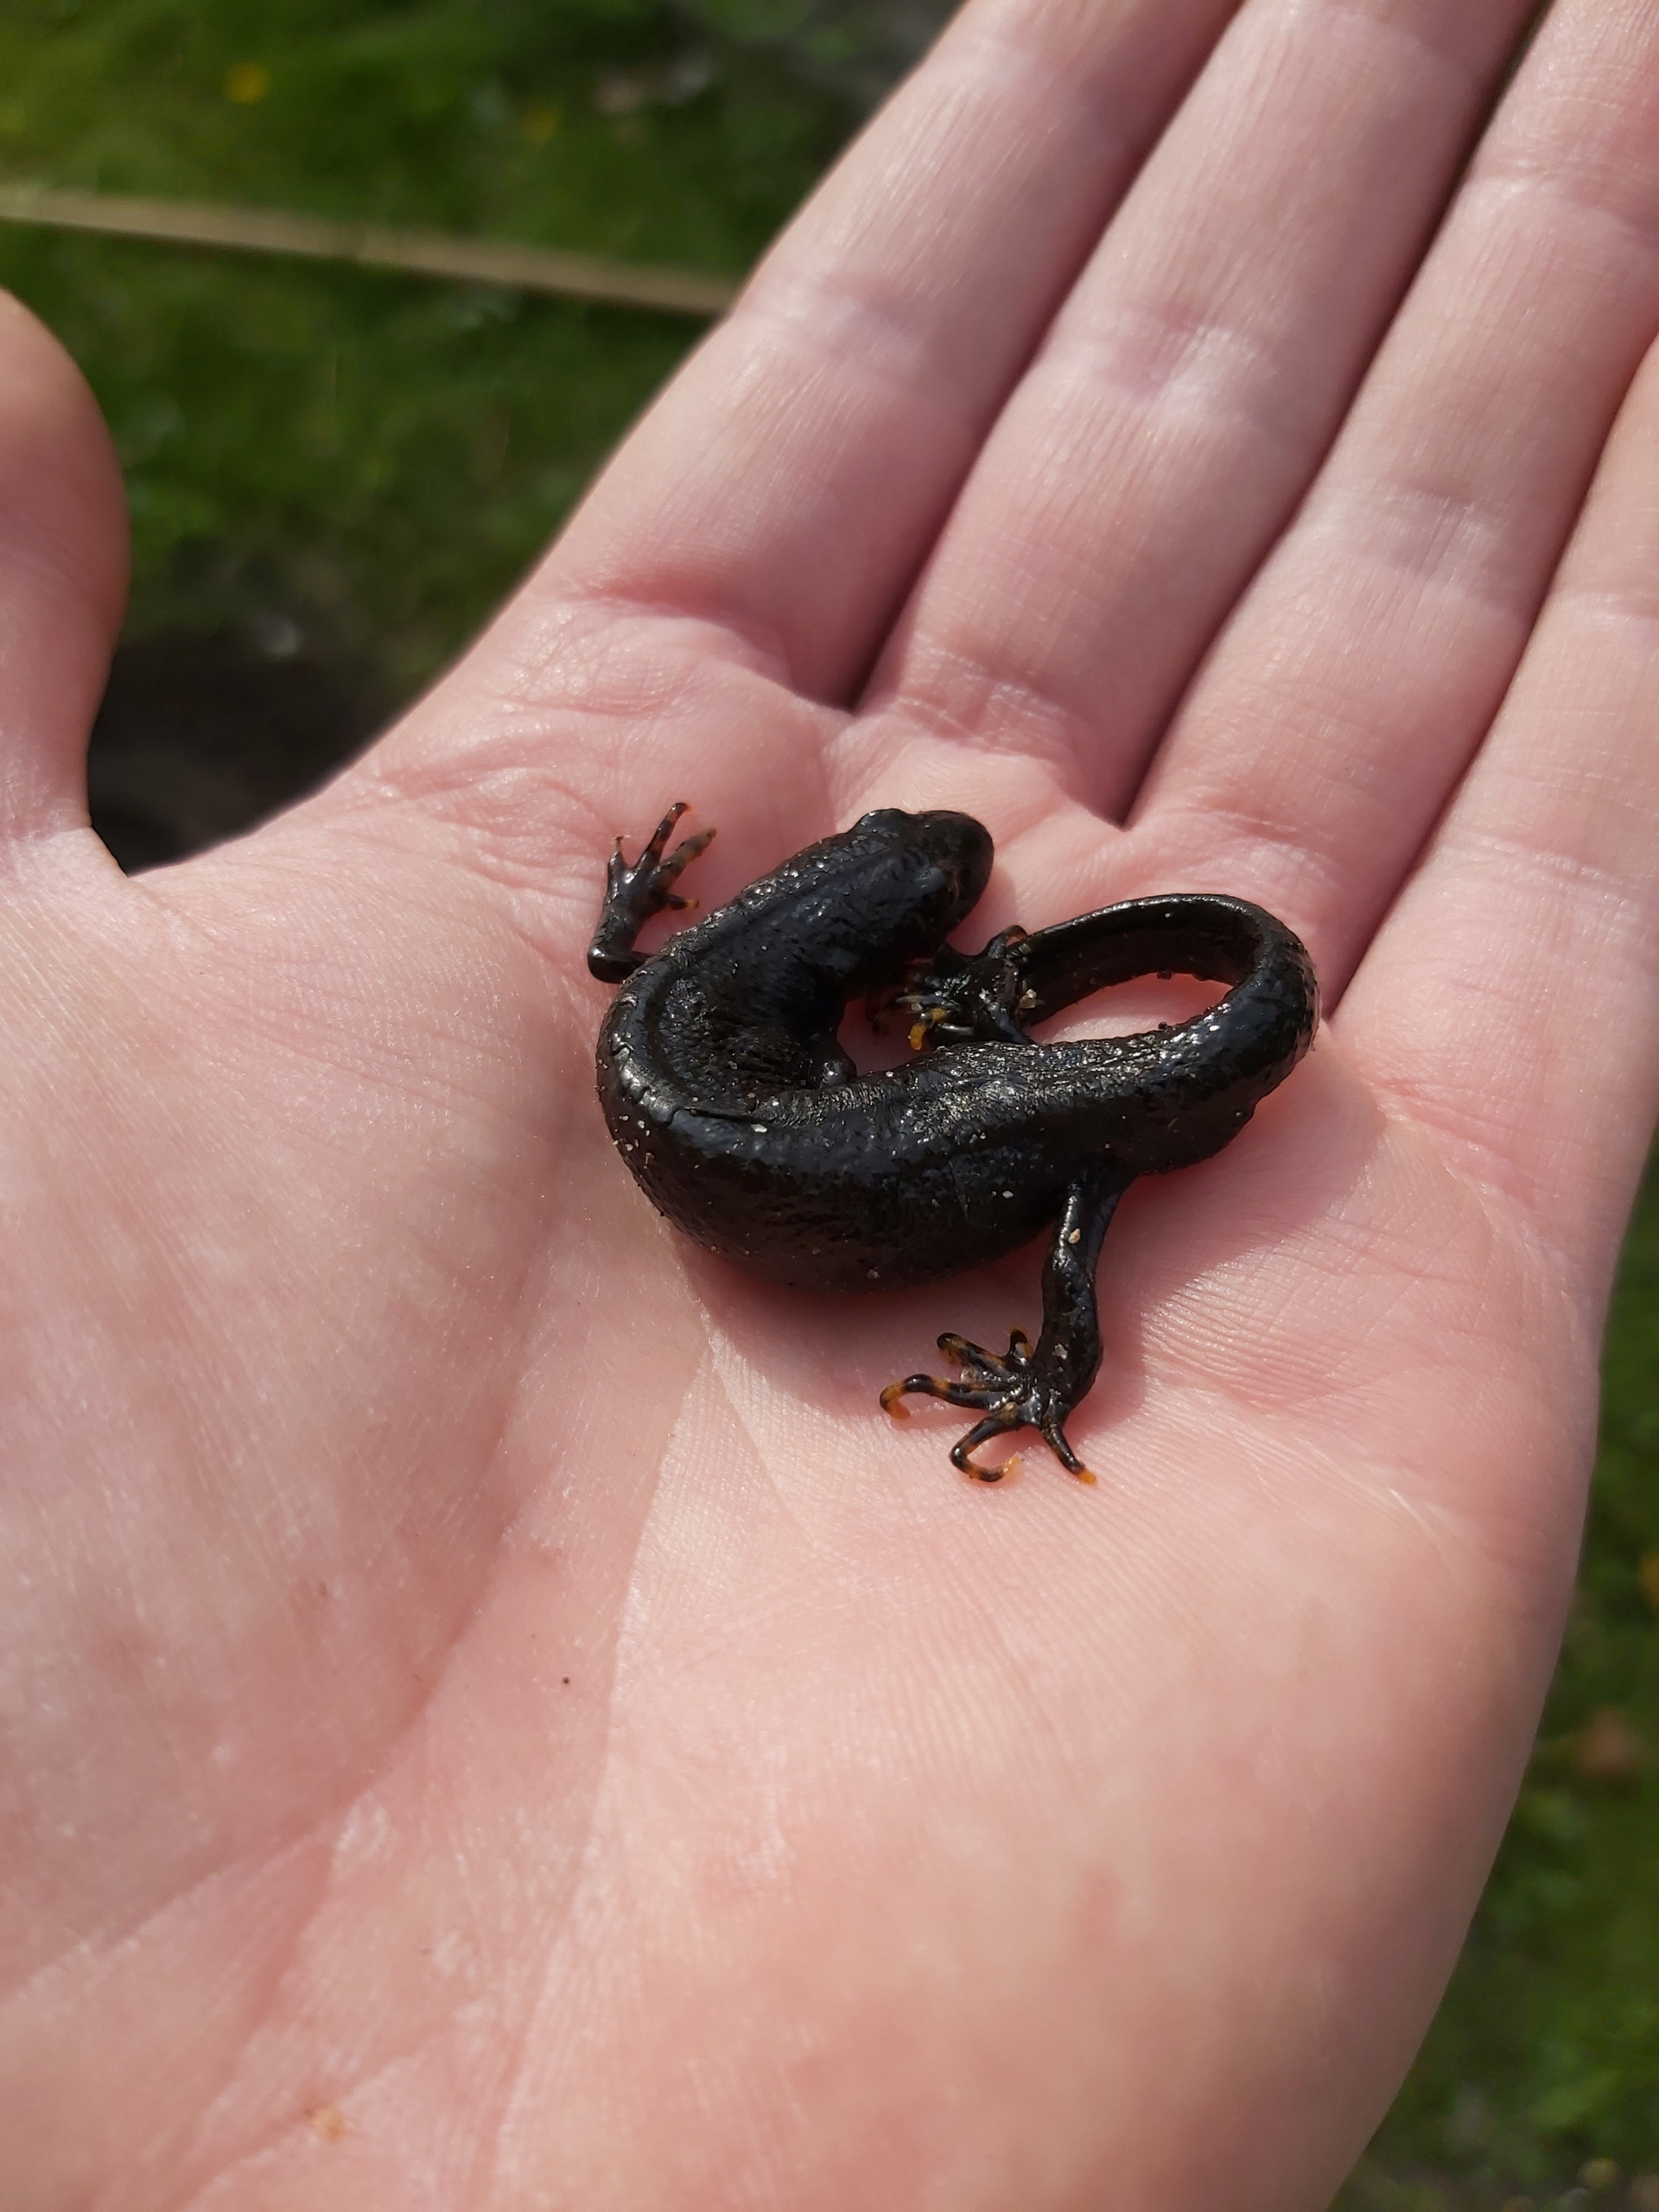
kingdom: Animalia
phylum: Chordata
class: Amphibia
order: Caudata
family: Salamandridae
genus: Triturus
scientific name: Triturus cristatus
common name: Stor vandsalamander
